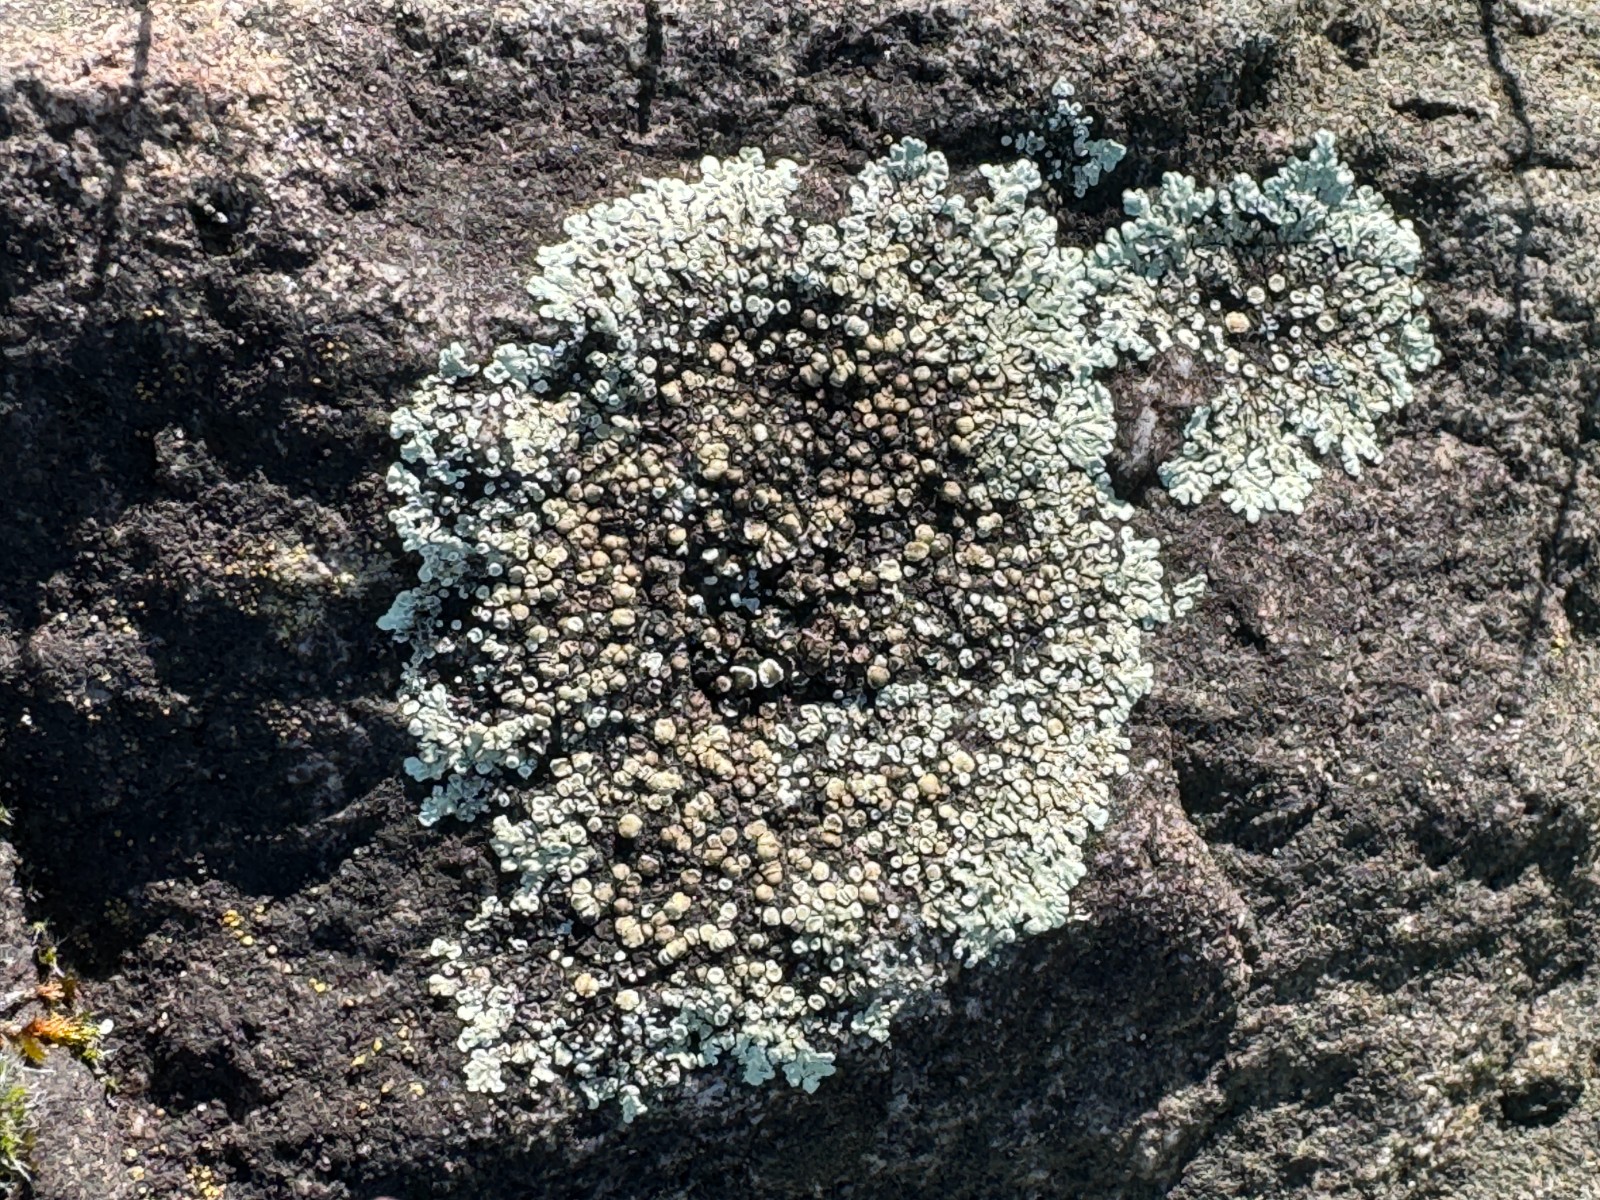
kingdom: Fungi
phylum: Ascomycota
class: Lecanoromycetes
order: Lecanorales
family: Lecanoraceae
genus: Protoparmeliopsis
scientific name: Protoparmeliopsis muralis
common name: randfliget kantskivelav
